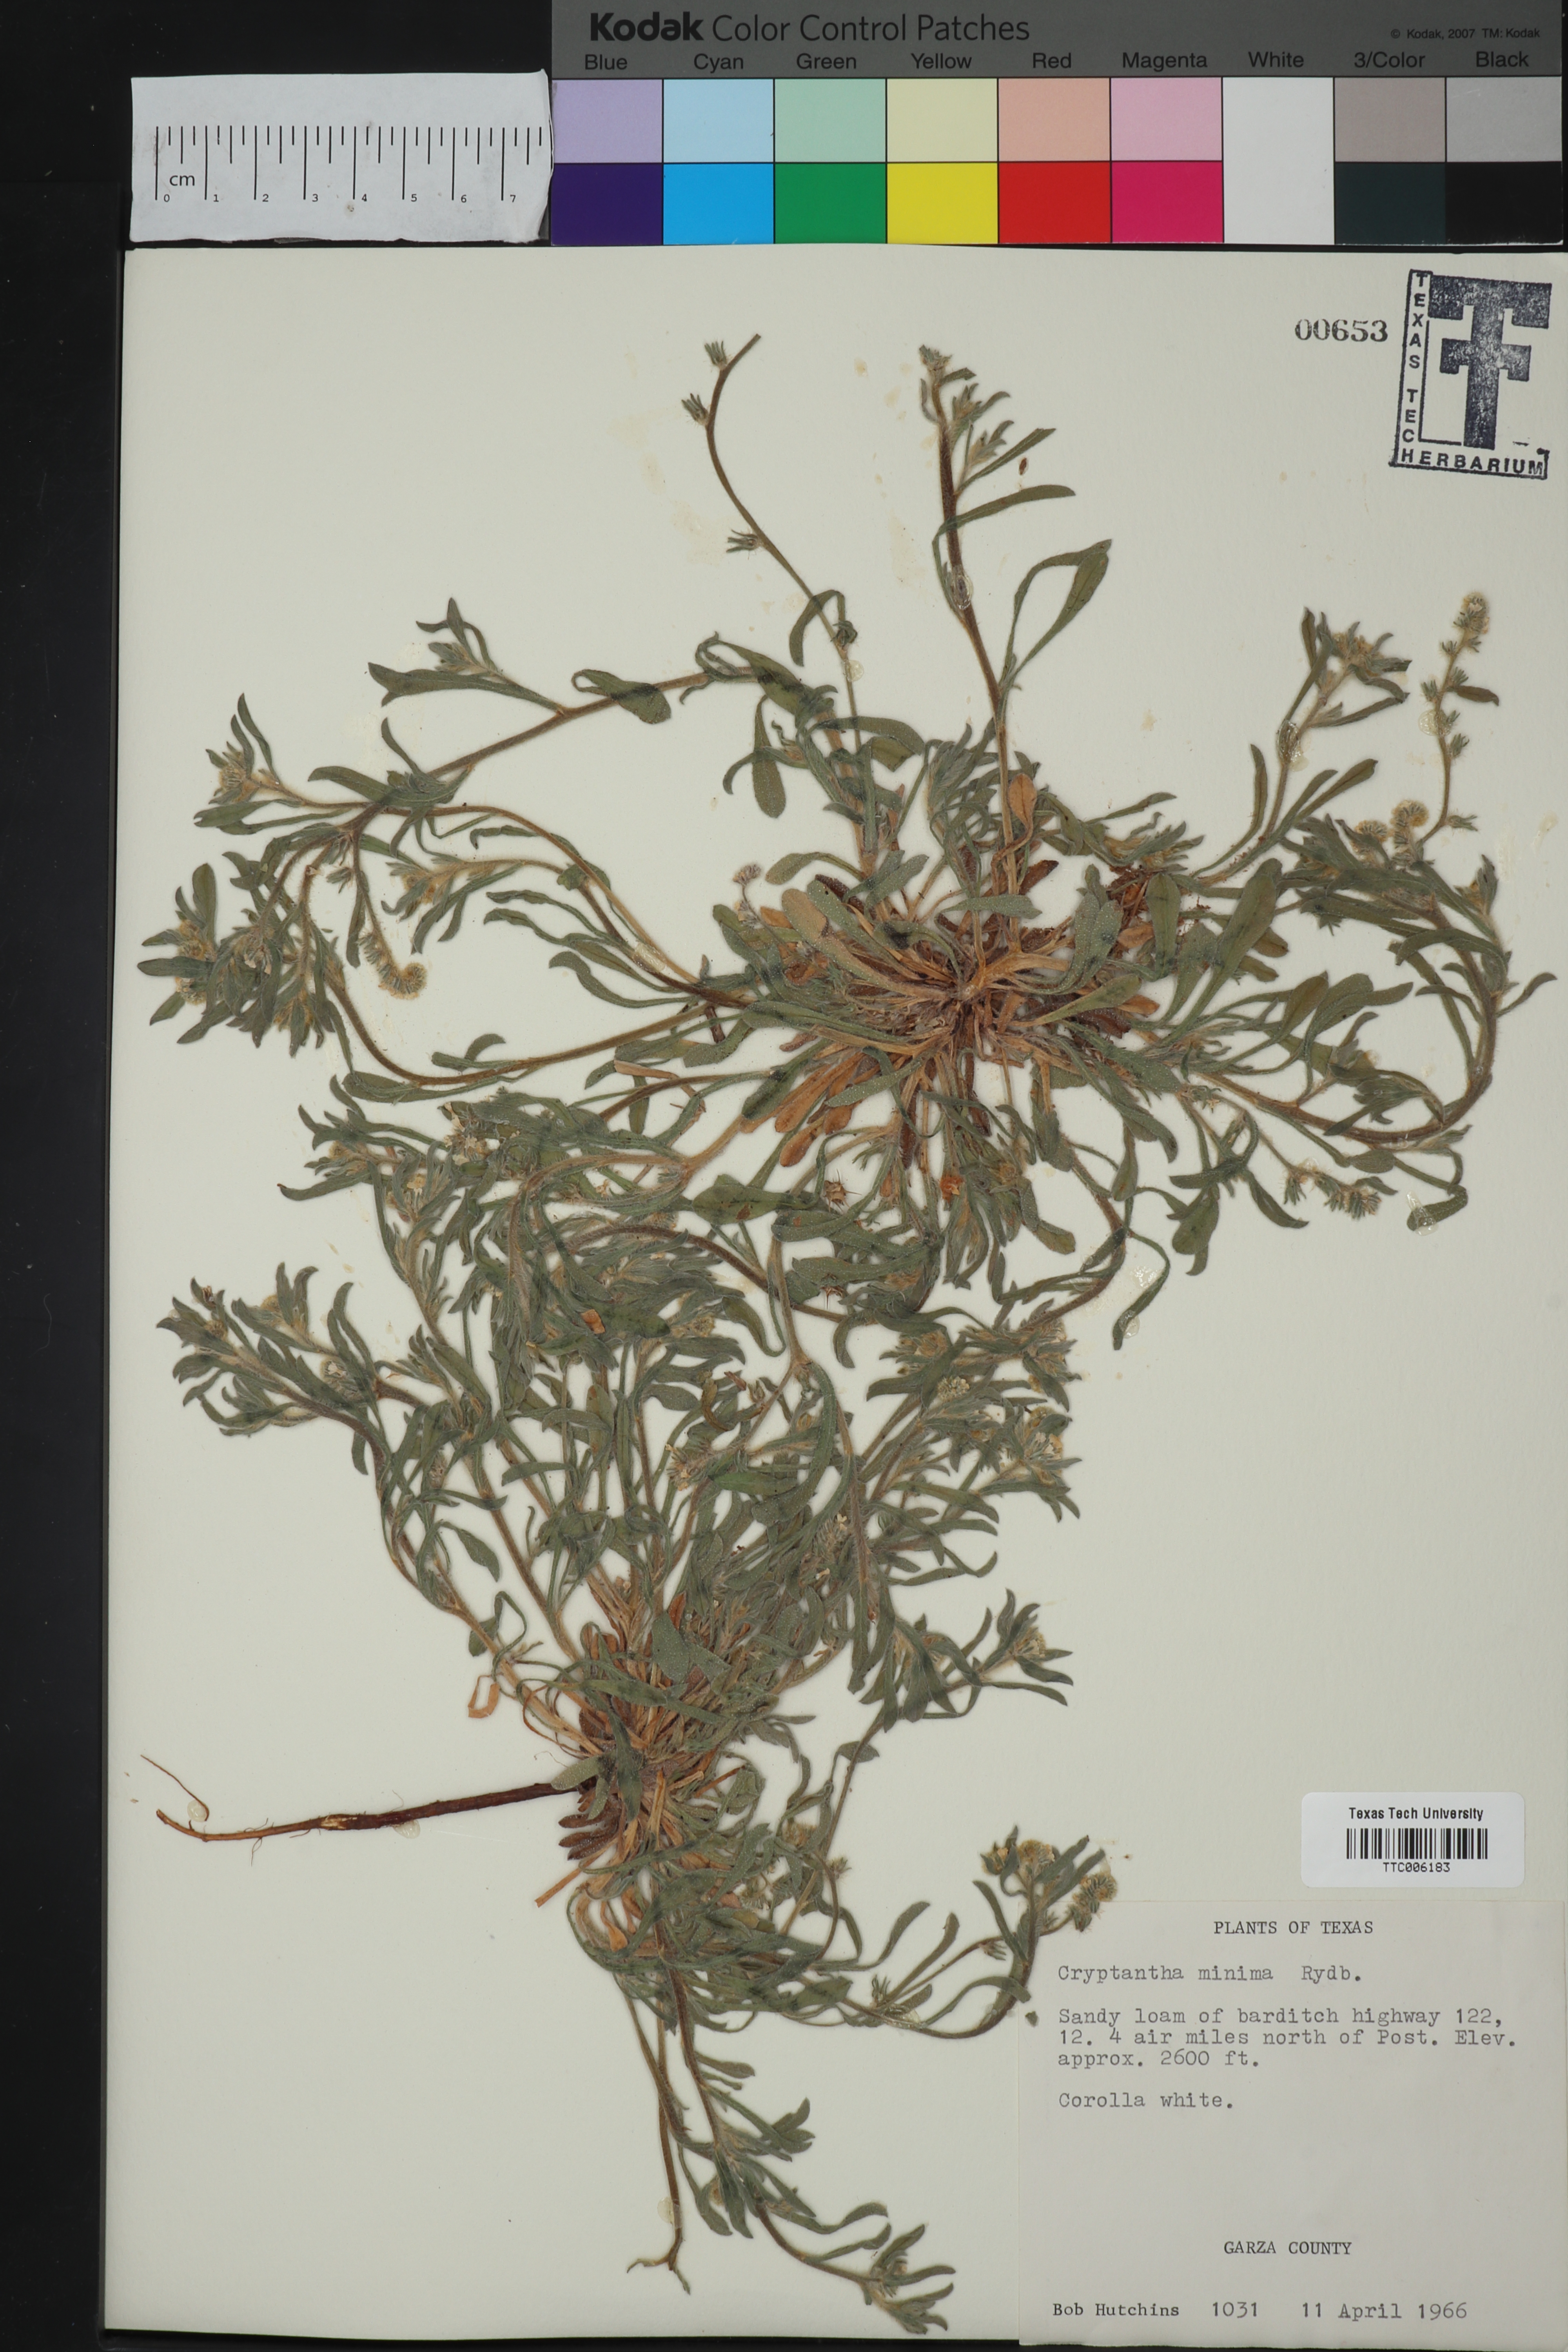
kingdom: Plantae
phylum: Tracheophyta
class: Magnoliopsida
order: Boraginales
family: Boraginaceae
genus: Cryptantha
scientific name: Cryptantha minima
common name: Little cat's-eye
